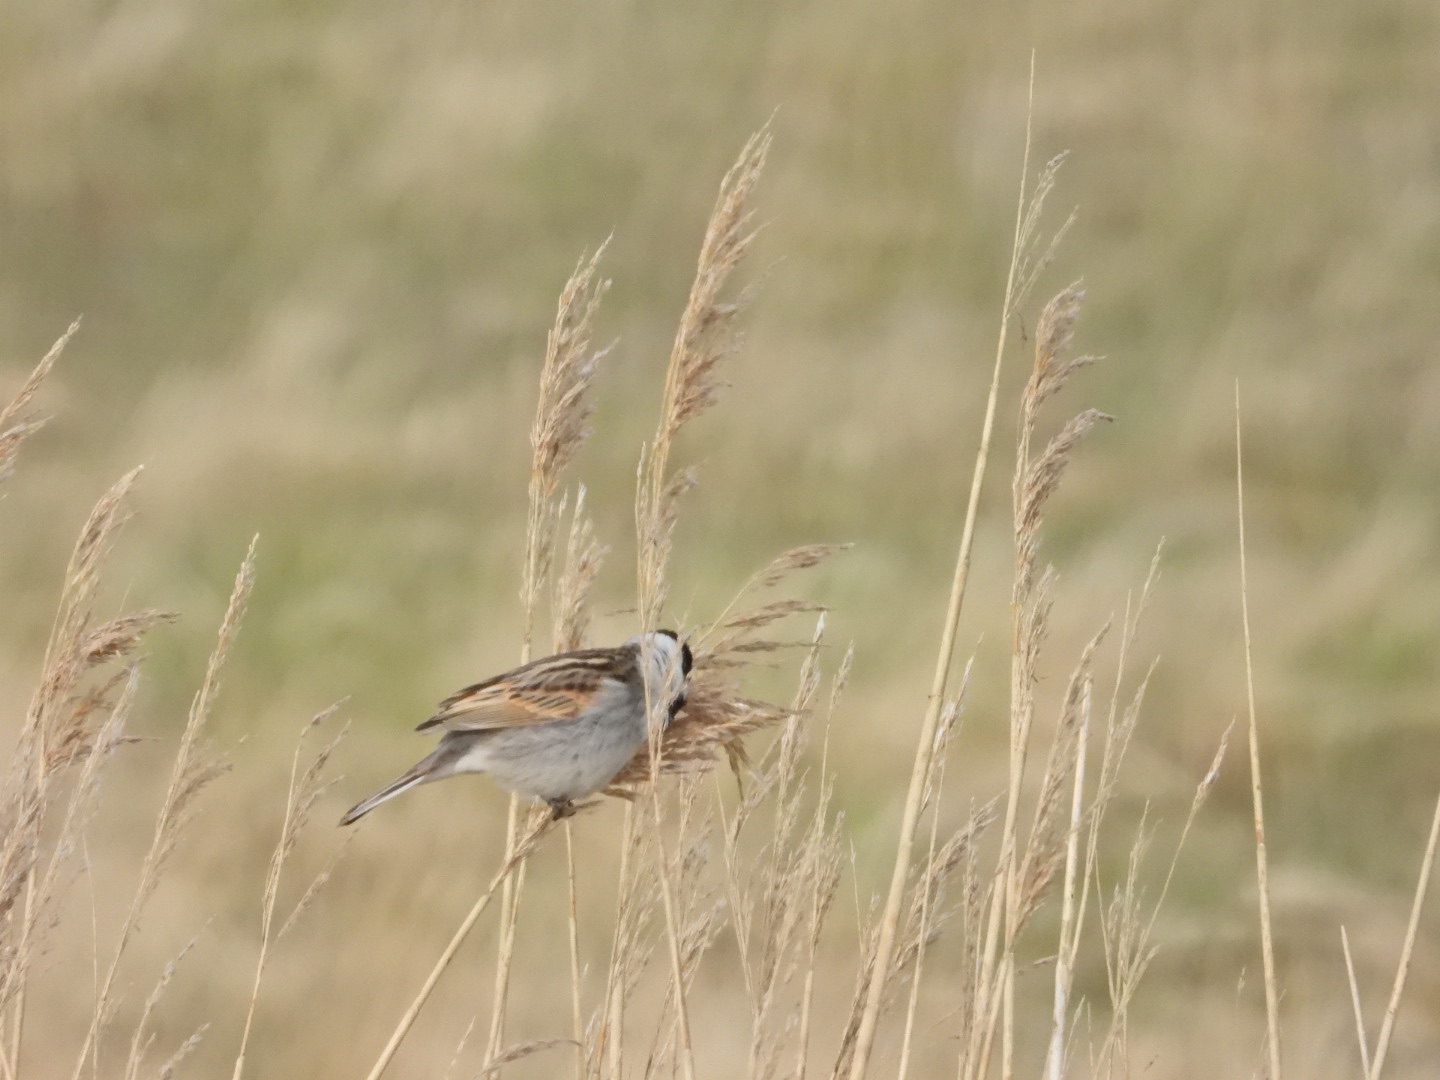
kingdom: Animalia
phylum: Chordata
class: Aves
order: Passeriformes
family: Emberizidae
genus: Emberiza
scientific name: Emberiza schoeniclus
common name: Rørspurv
